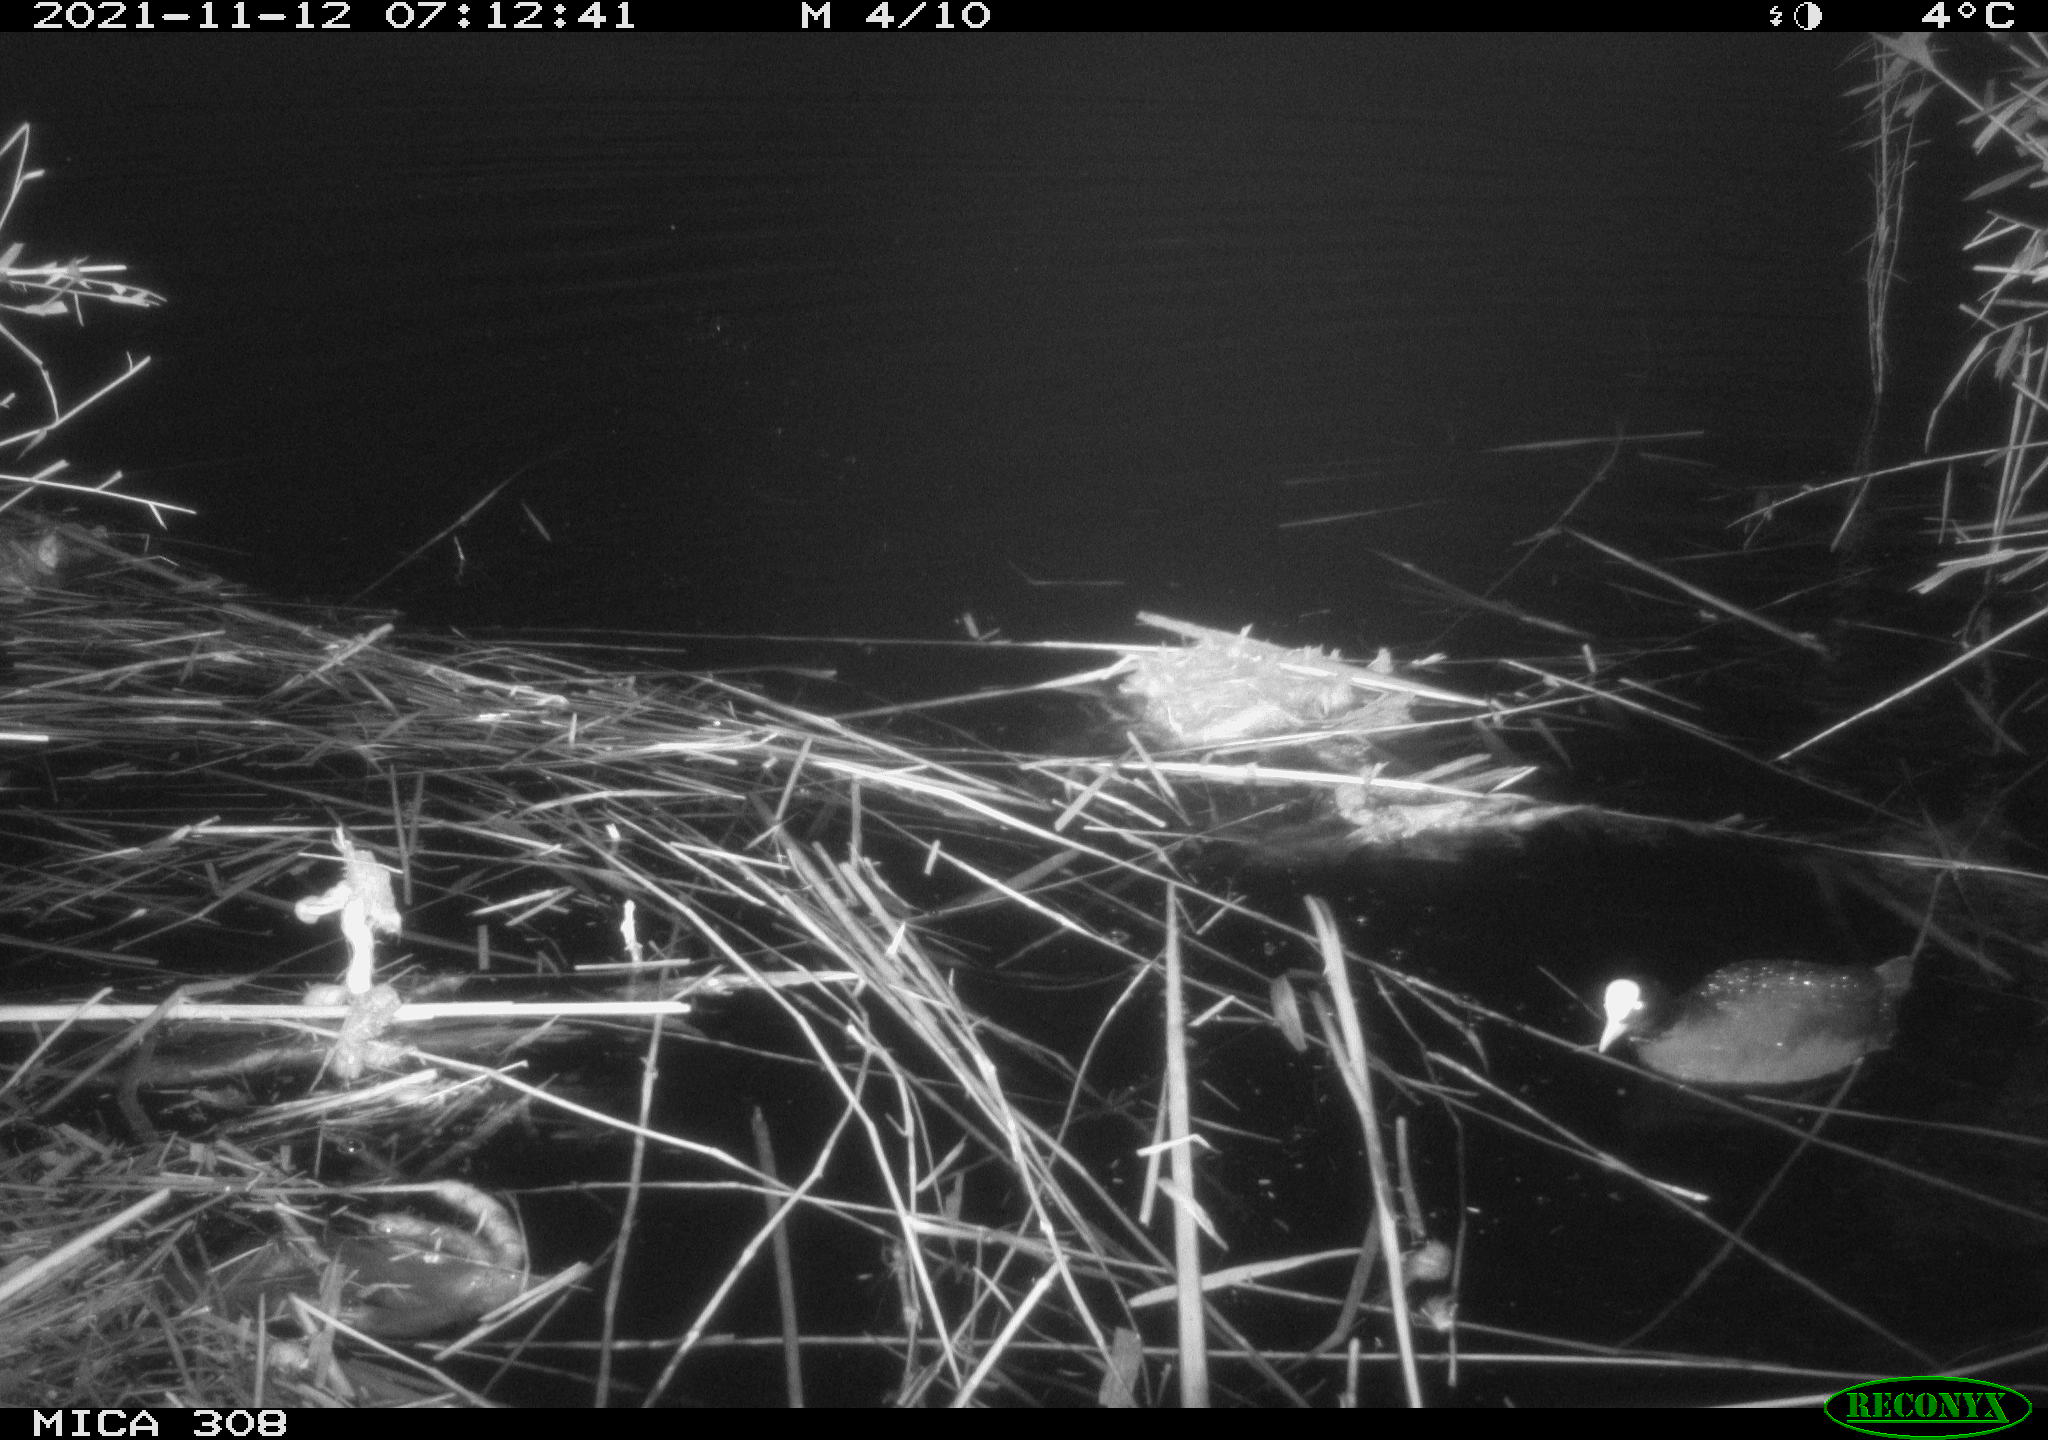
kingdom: Animalia
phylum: Chordata
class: Aves
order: Gruiformes
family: Rallidae
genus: Fulica
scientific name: Fulica atra
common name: Eurasian coot
